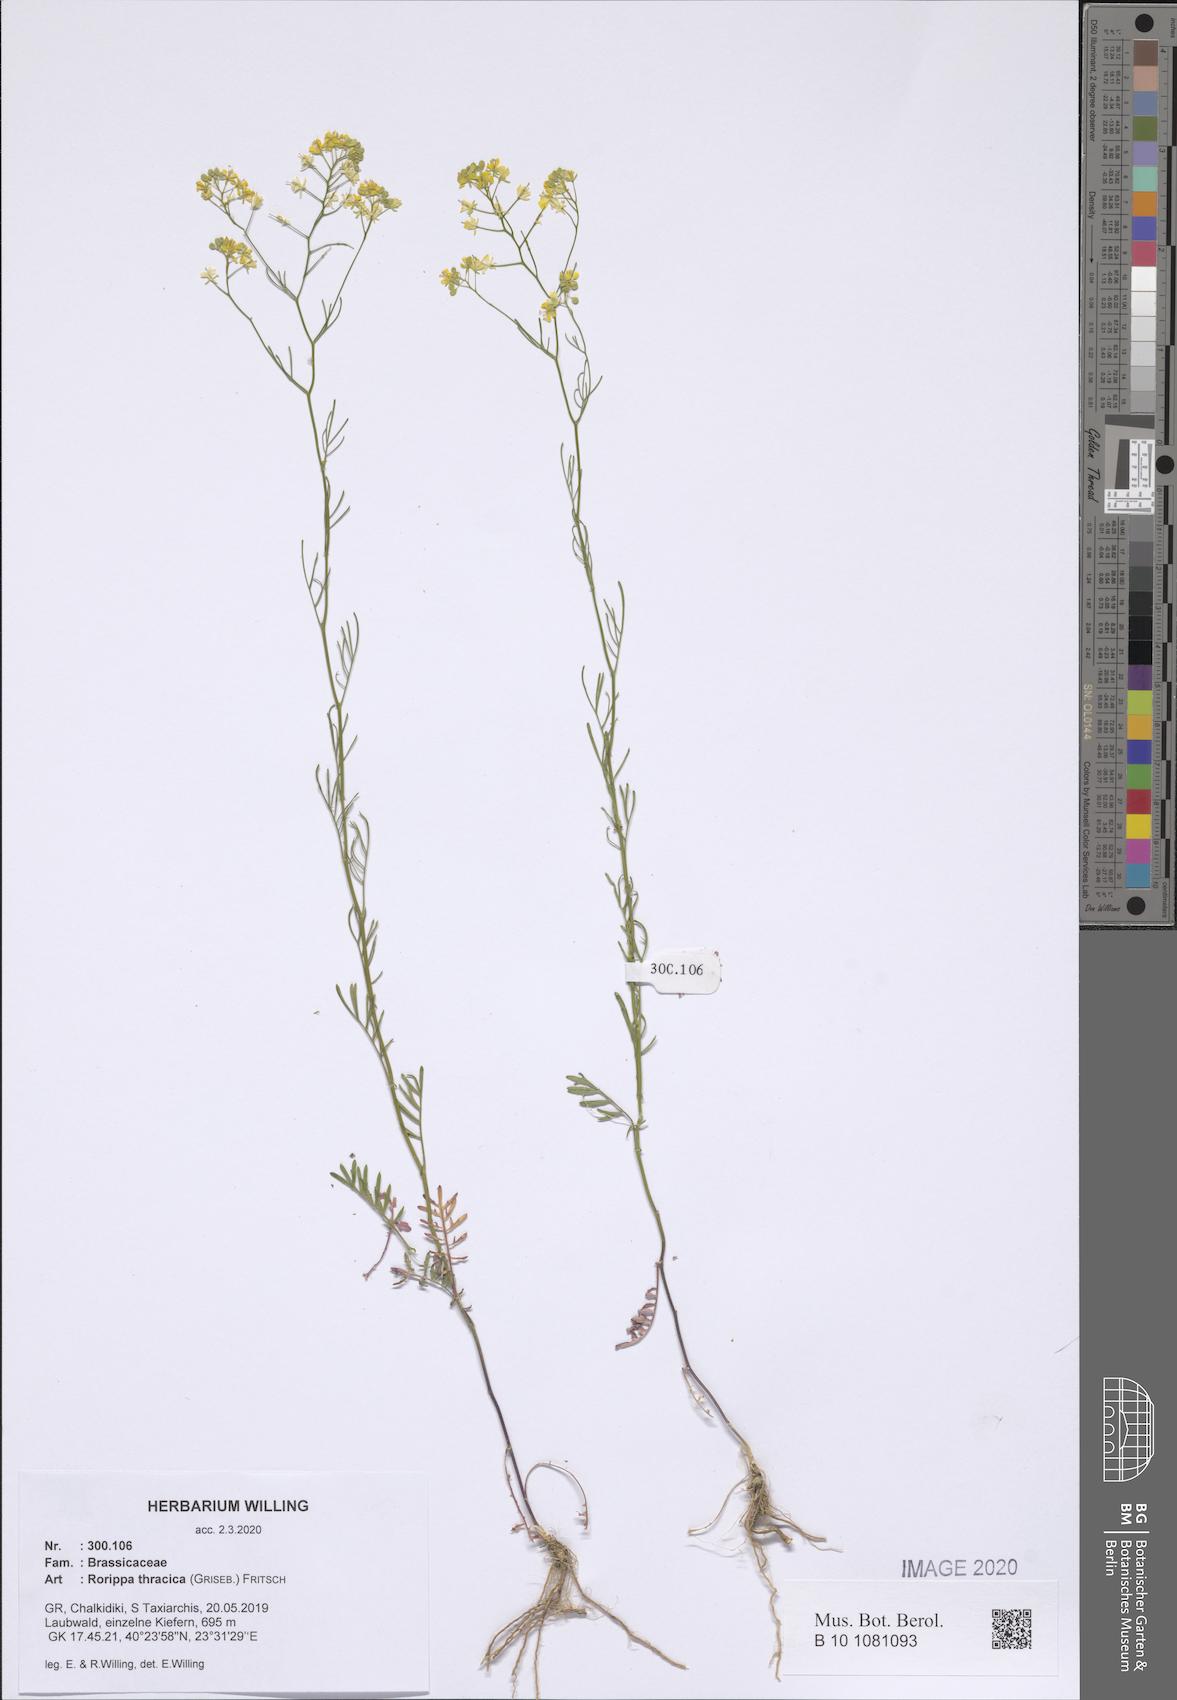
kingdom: Plantae
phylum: Tracheophyta
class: Magnoliopsida
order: Brassicales
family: Brassicaceae
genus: Rorippa
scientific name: Rorippa lippizensis
